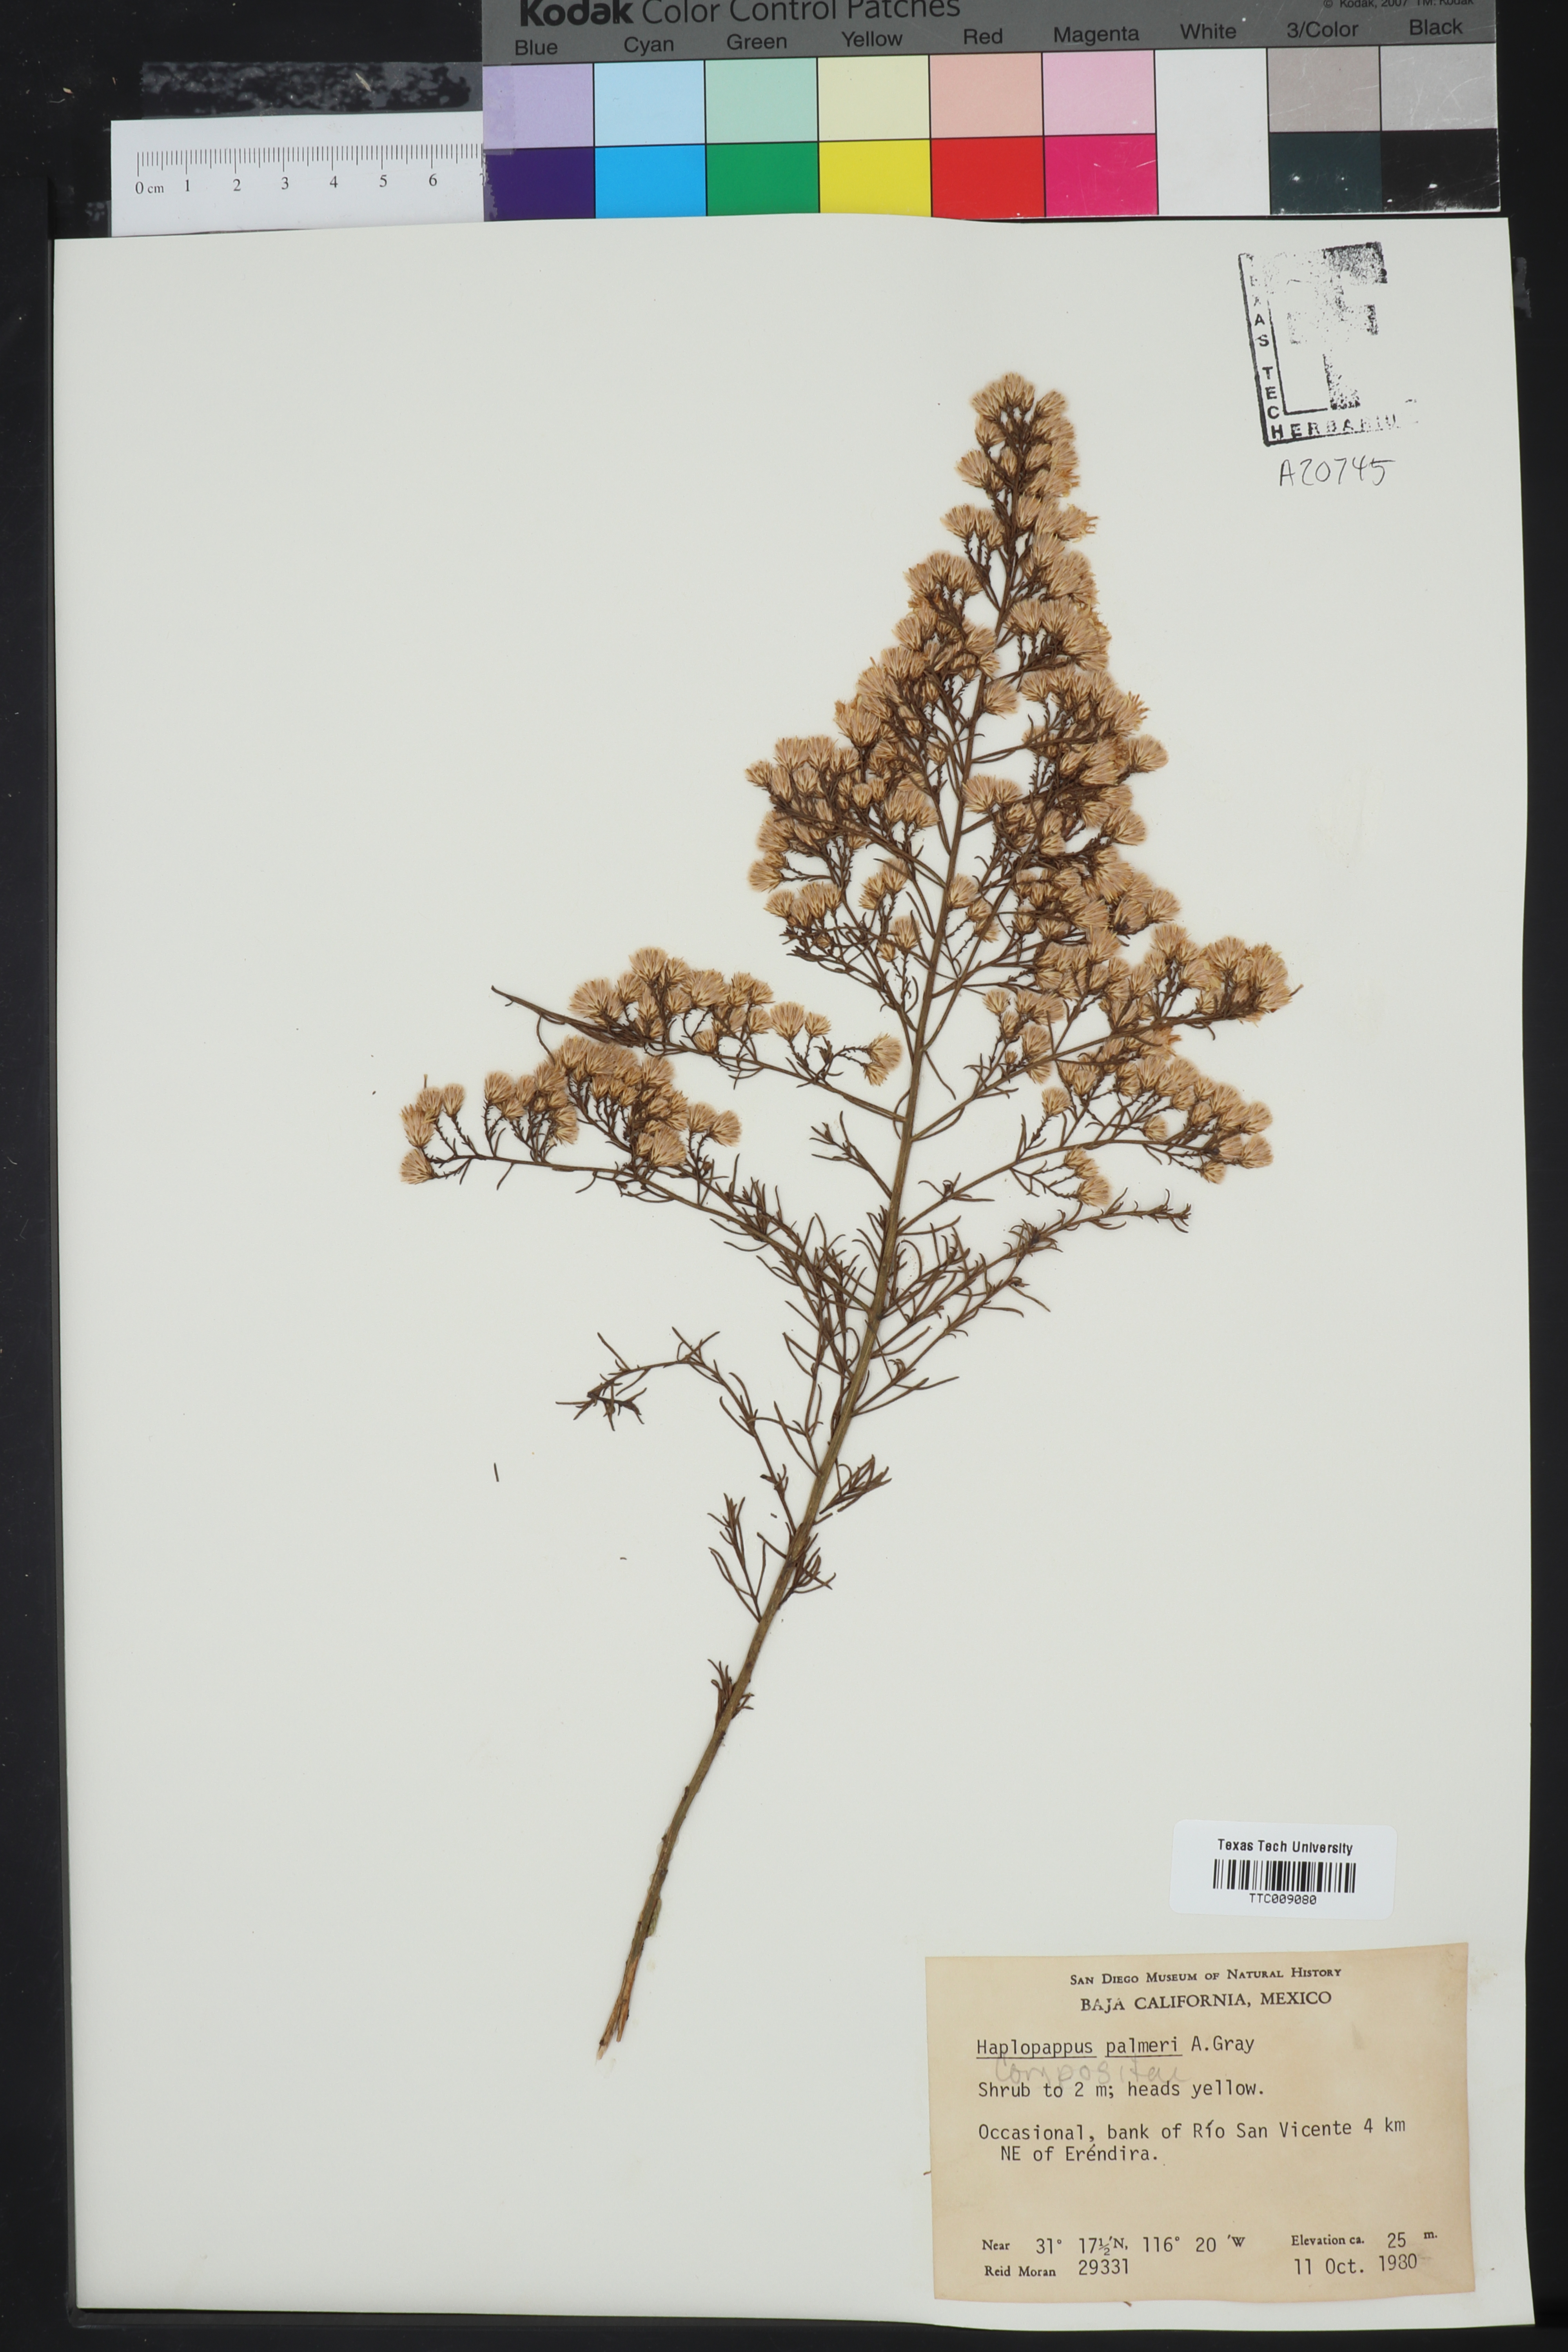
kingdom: Plantae
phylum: Tracheophyta
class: Magnoliopsida
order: Asterales
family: Asteraceae
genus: Ericameria
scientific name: Ericameria palmeri
